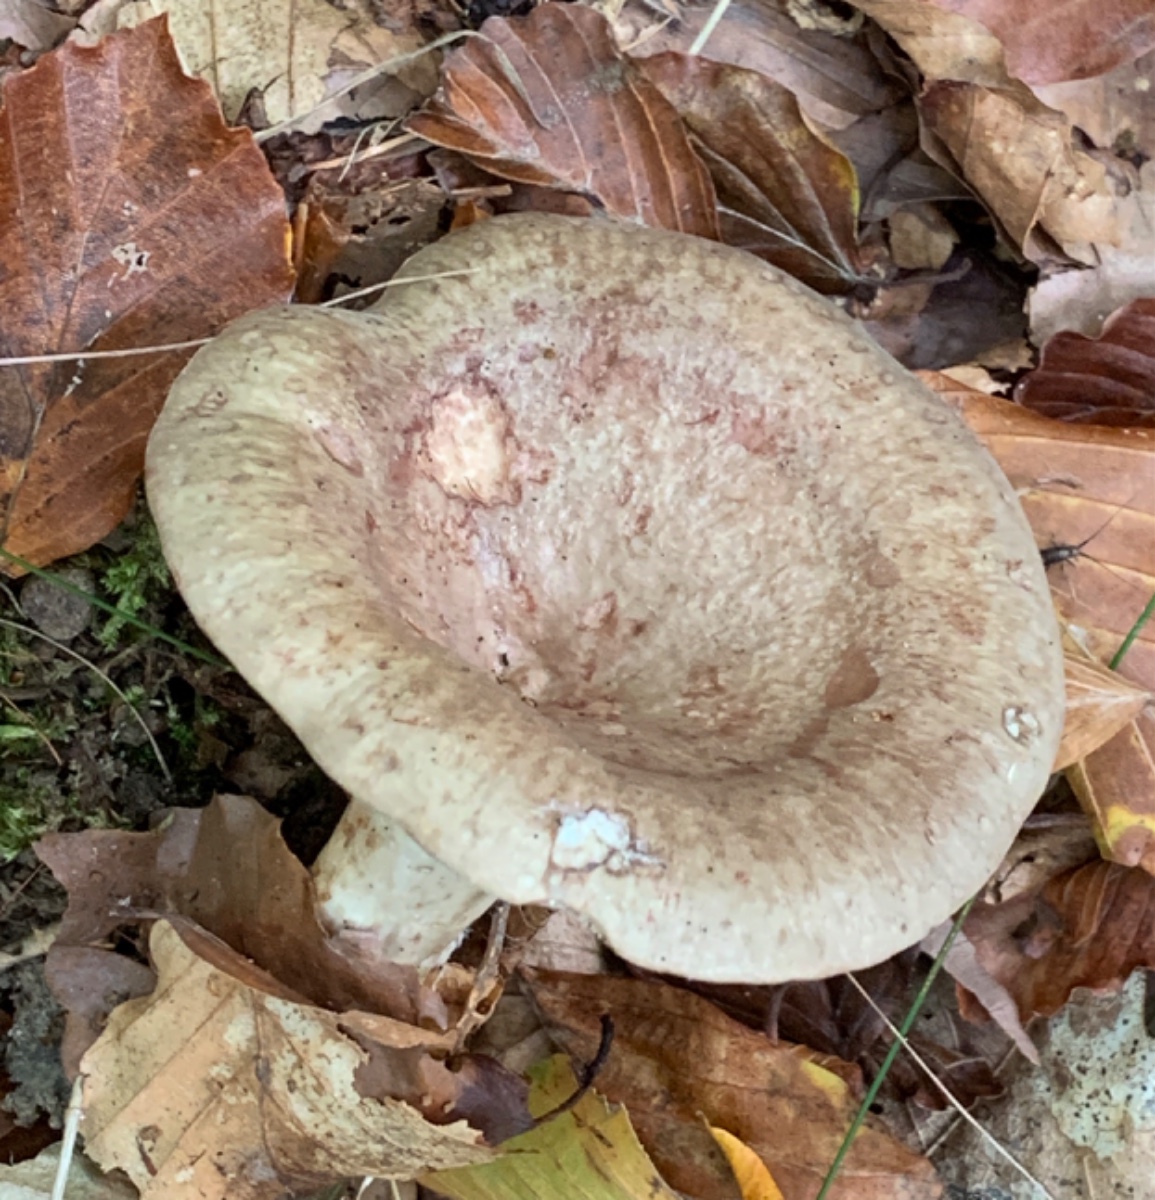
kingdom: Fungi
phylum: Basidiomycota
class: Agaricomycetes
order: Russulales
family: Russulaceae
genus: Lactarius
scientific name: Lactarius blennius
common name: dråbeplettet mælkehat
